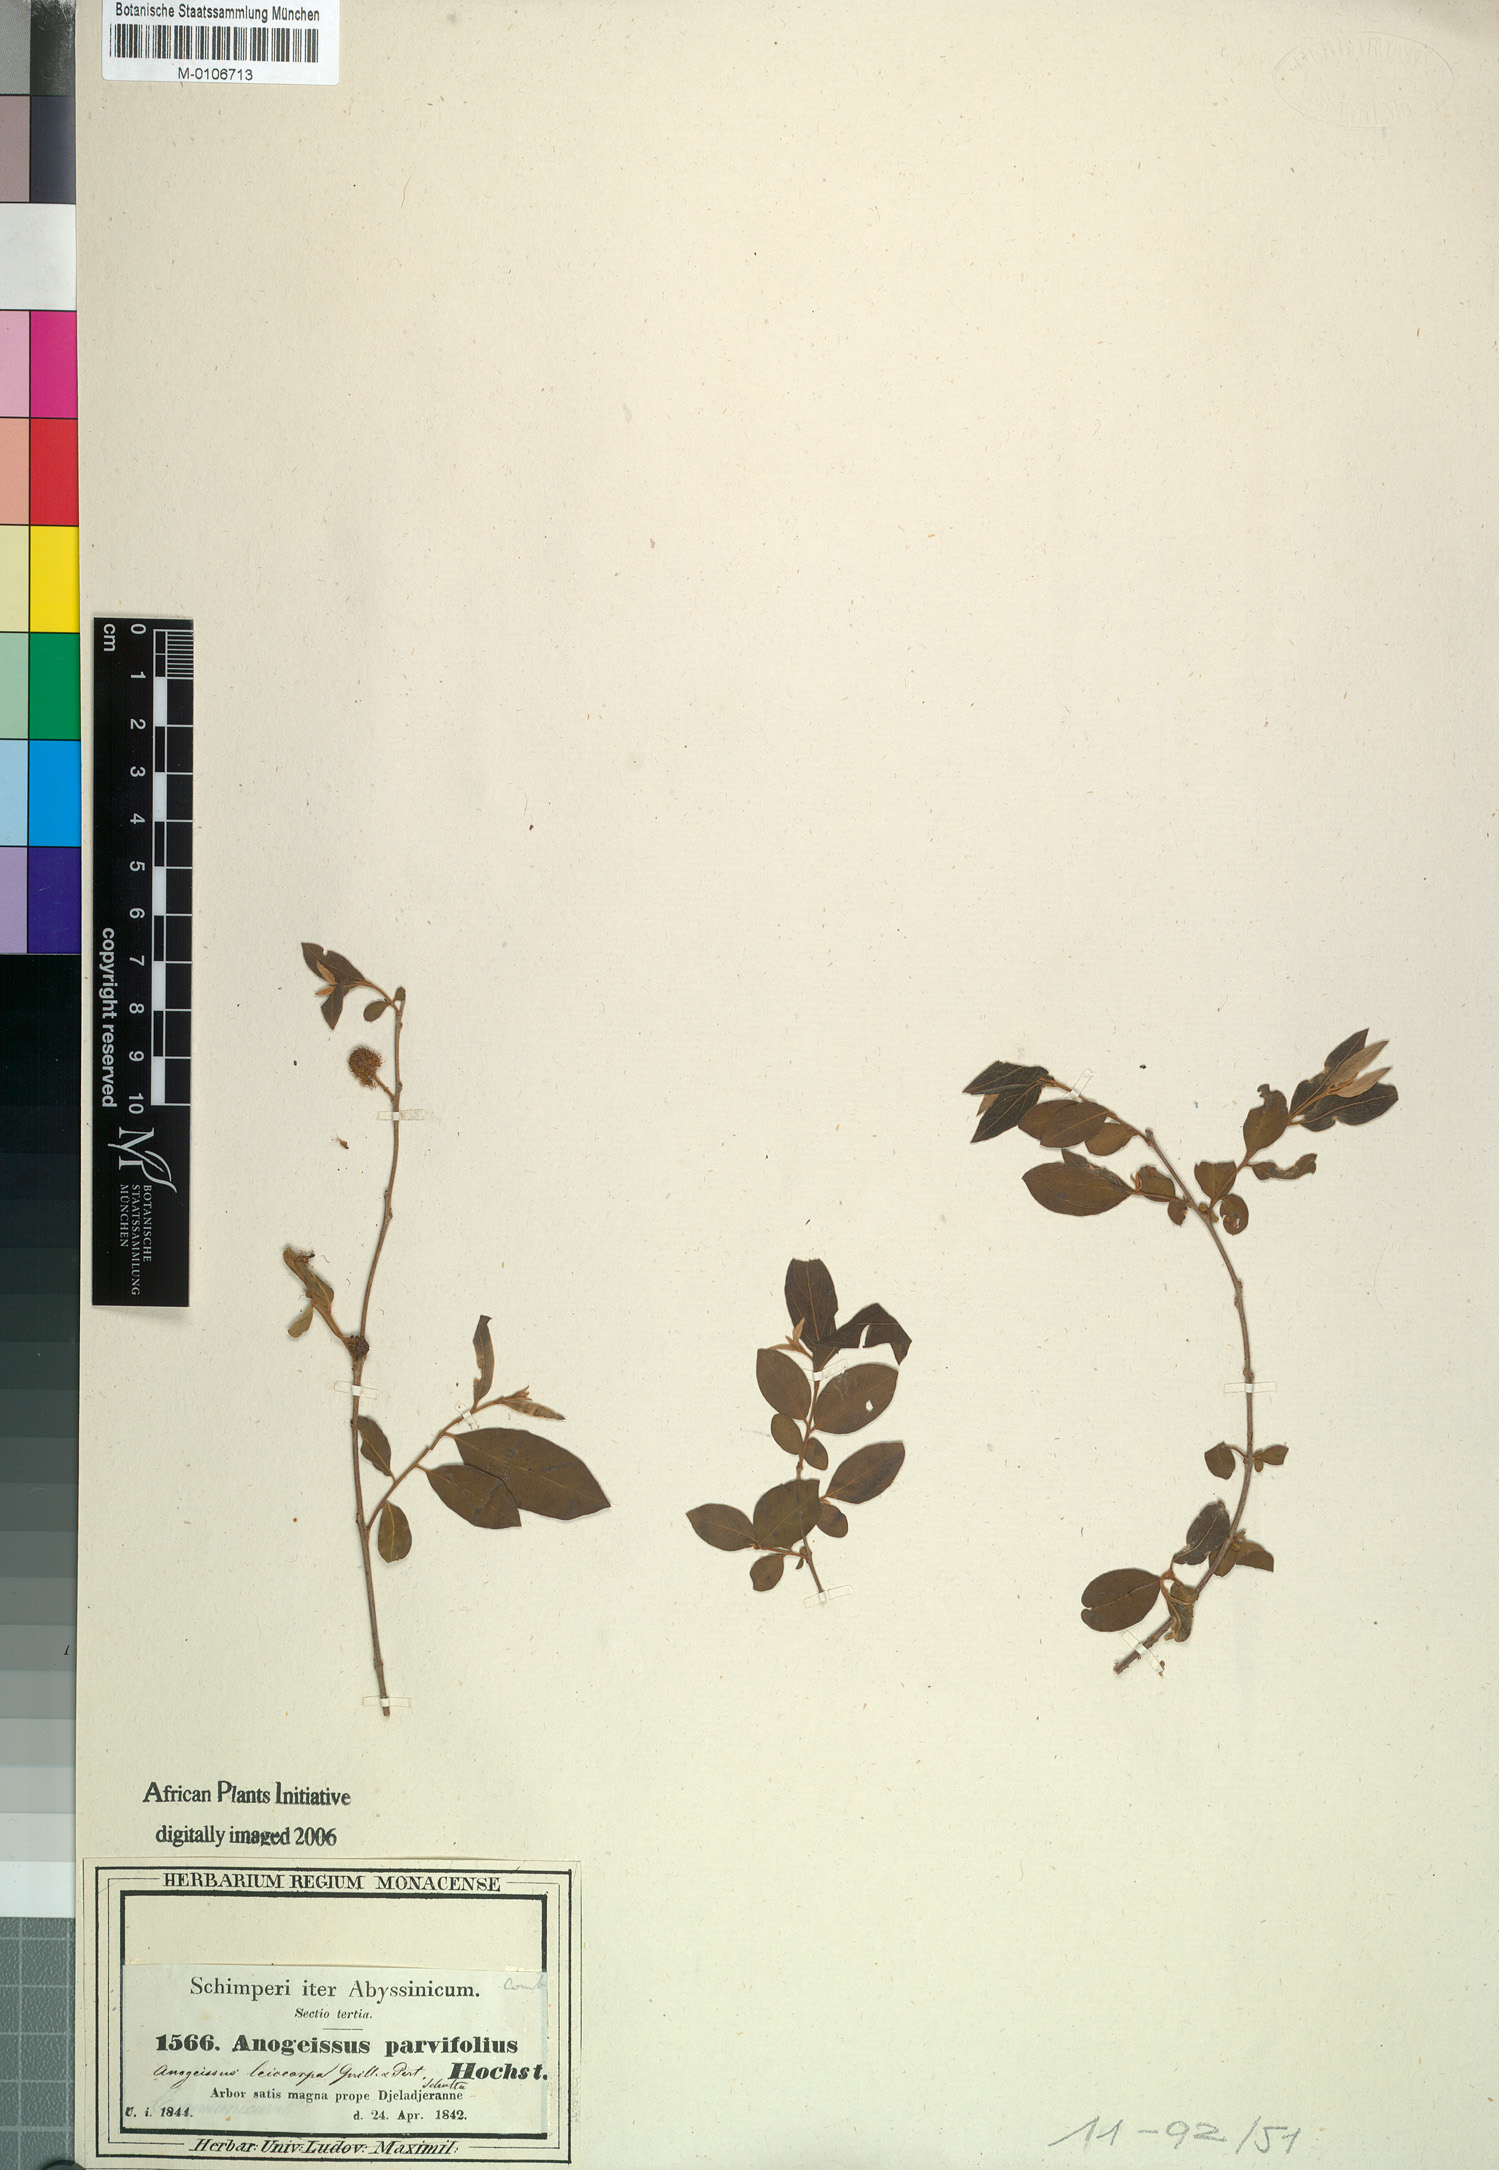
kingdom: Plantae
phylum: Tracheophyta
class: Magnoliopsida
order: Myrtales
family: Combretaceae
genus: Terminalia
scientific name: Terminalia leiocarpa
